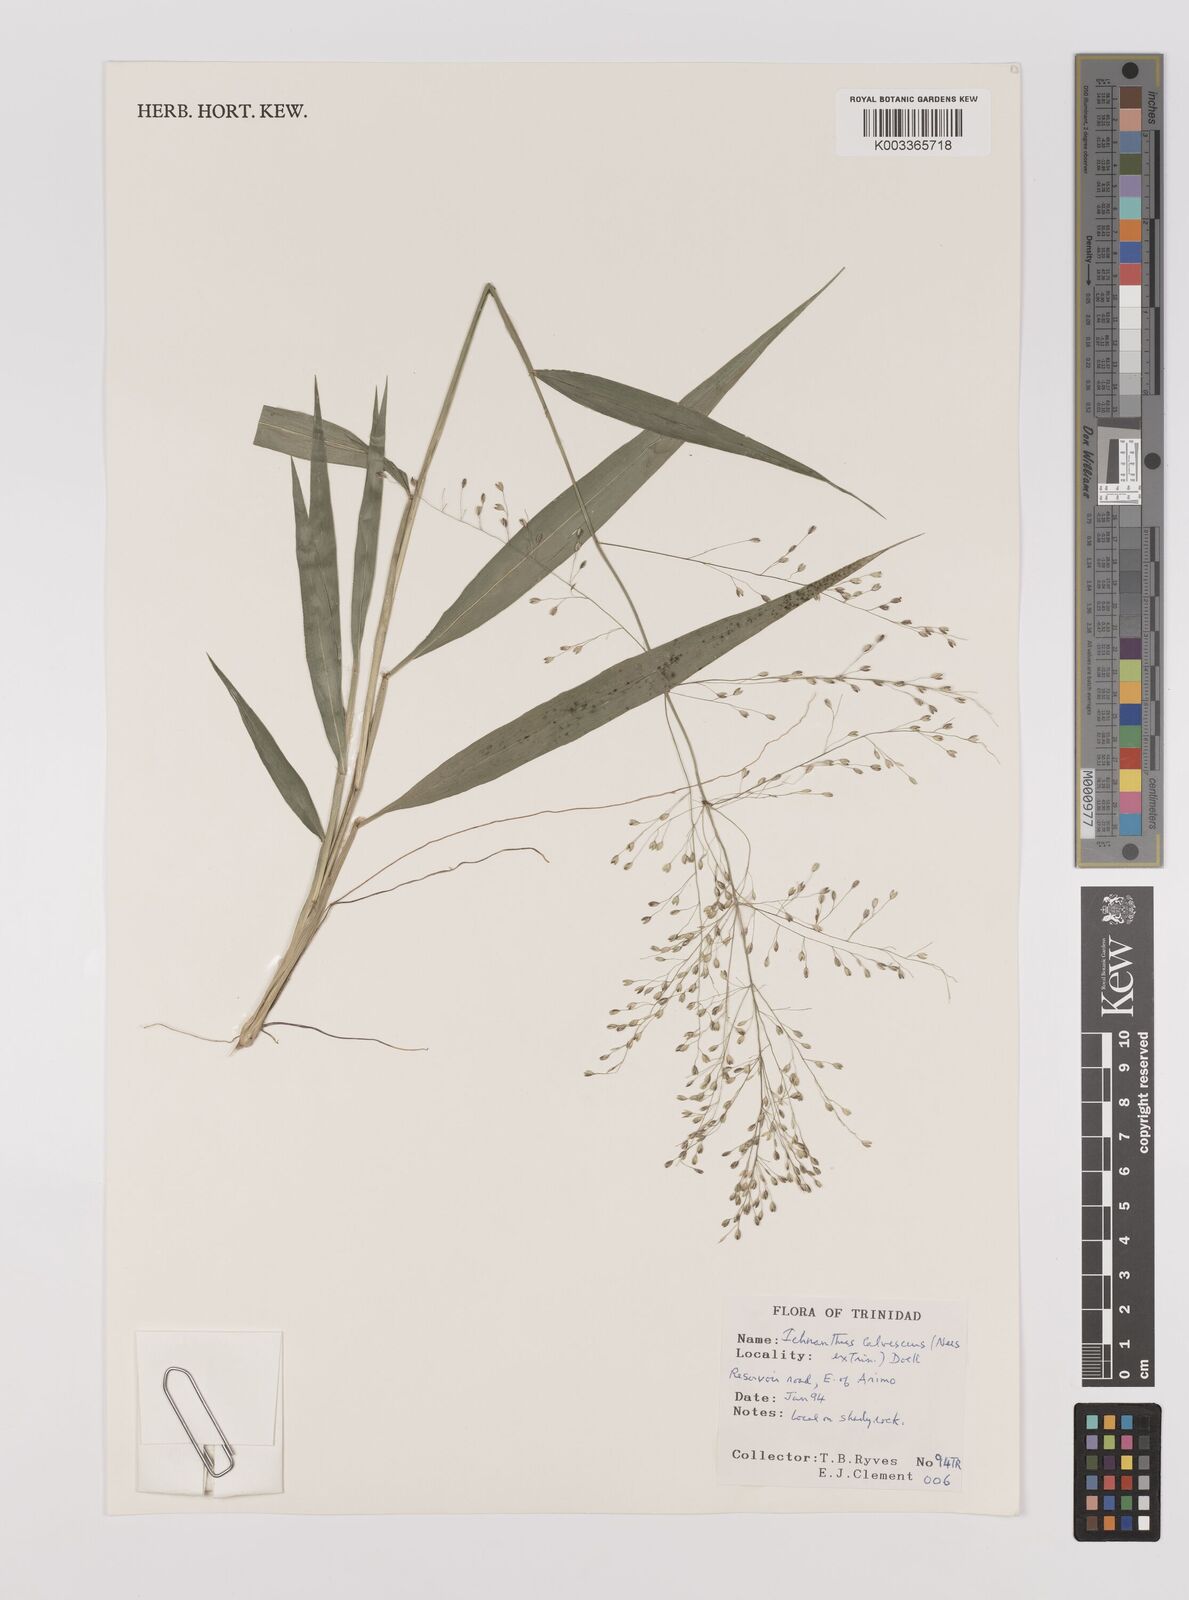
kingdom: Plantae
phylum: Tracheophyta
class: Liliopsida
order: Poales
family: Poaceae
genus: Ichnanthus
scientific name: Ichnanthus calvescens
